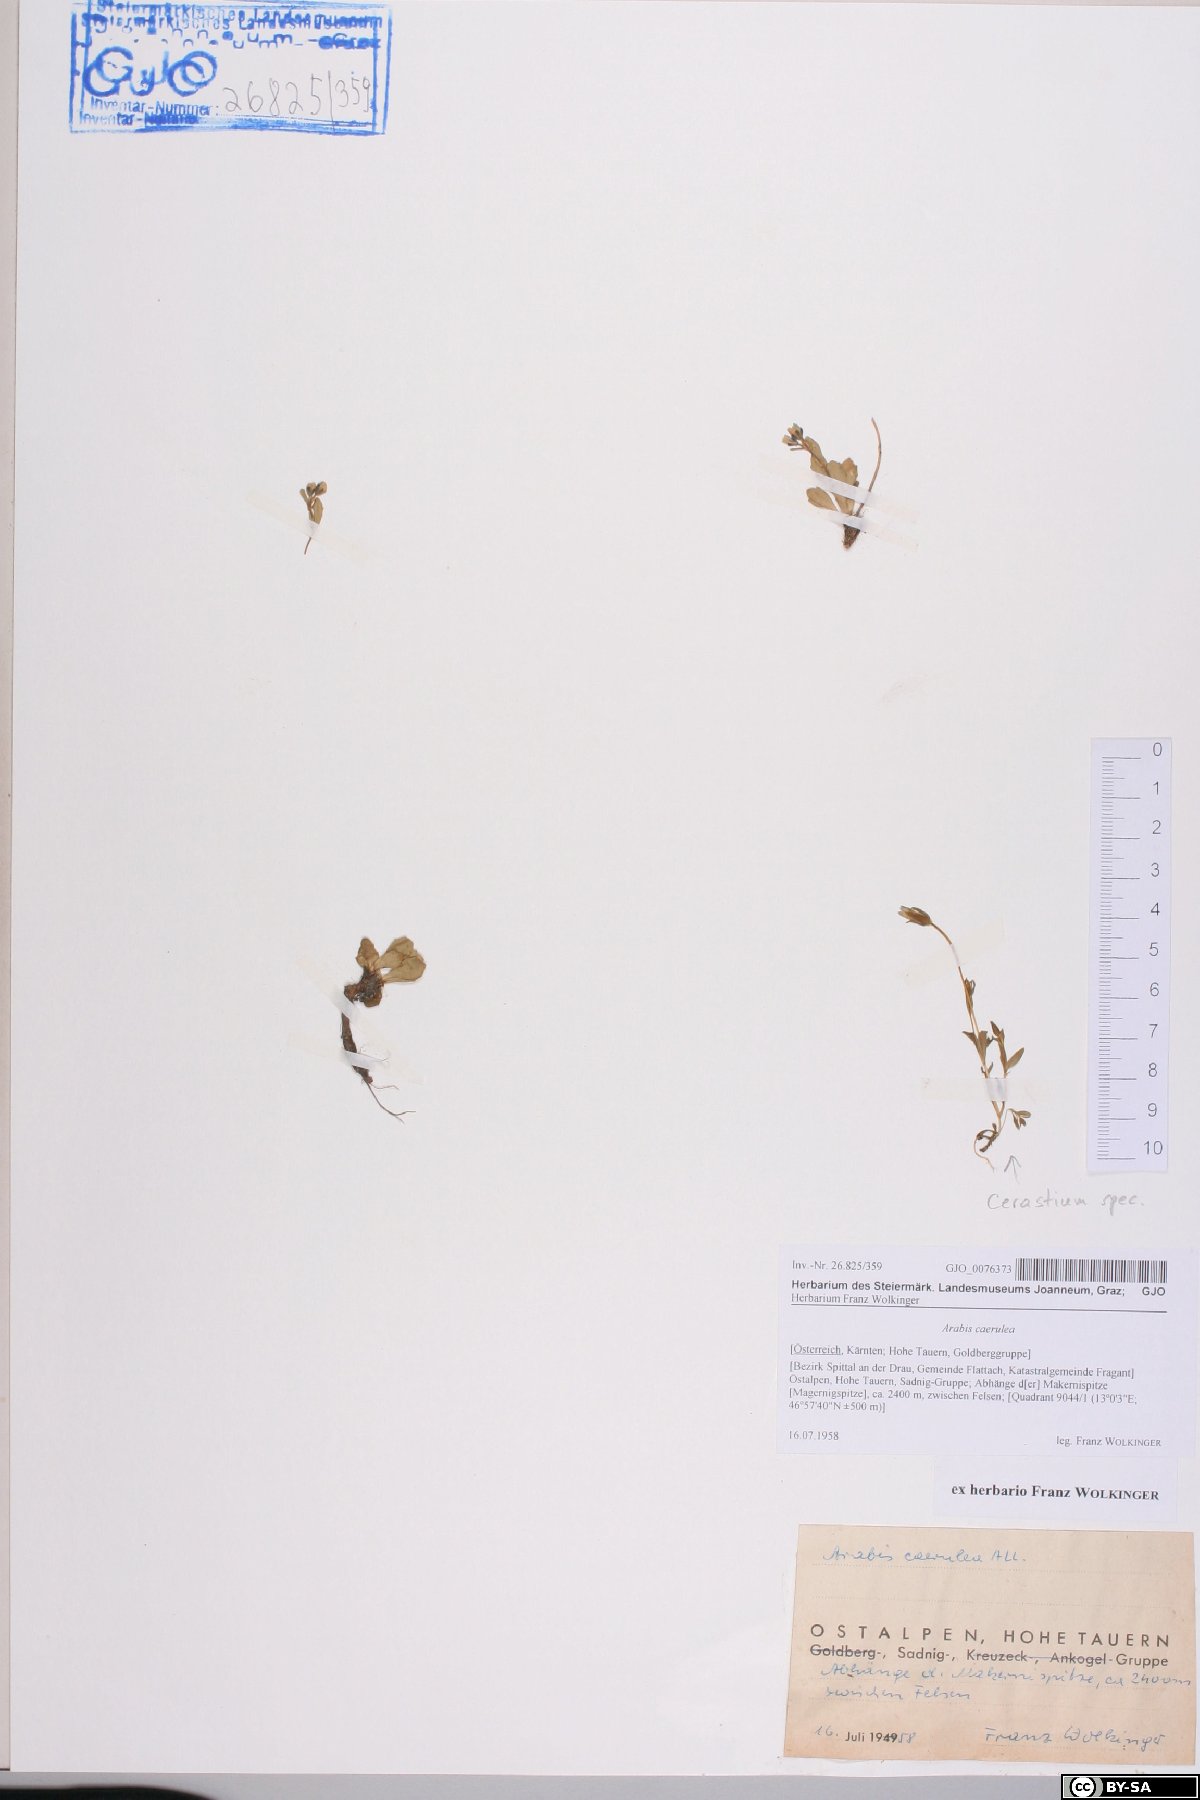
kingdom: Plantae
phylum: Tracheophyta
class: Magnoliopsida
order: Brassicales
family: Brassicaceae
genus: Arabis
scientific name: Arabis caerulea
